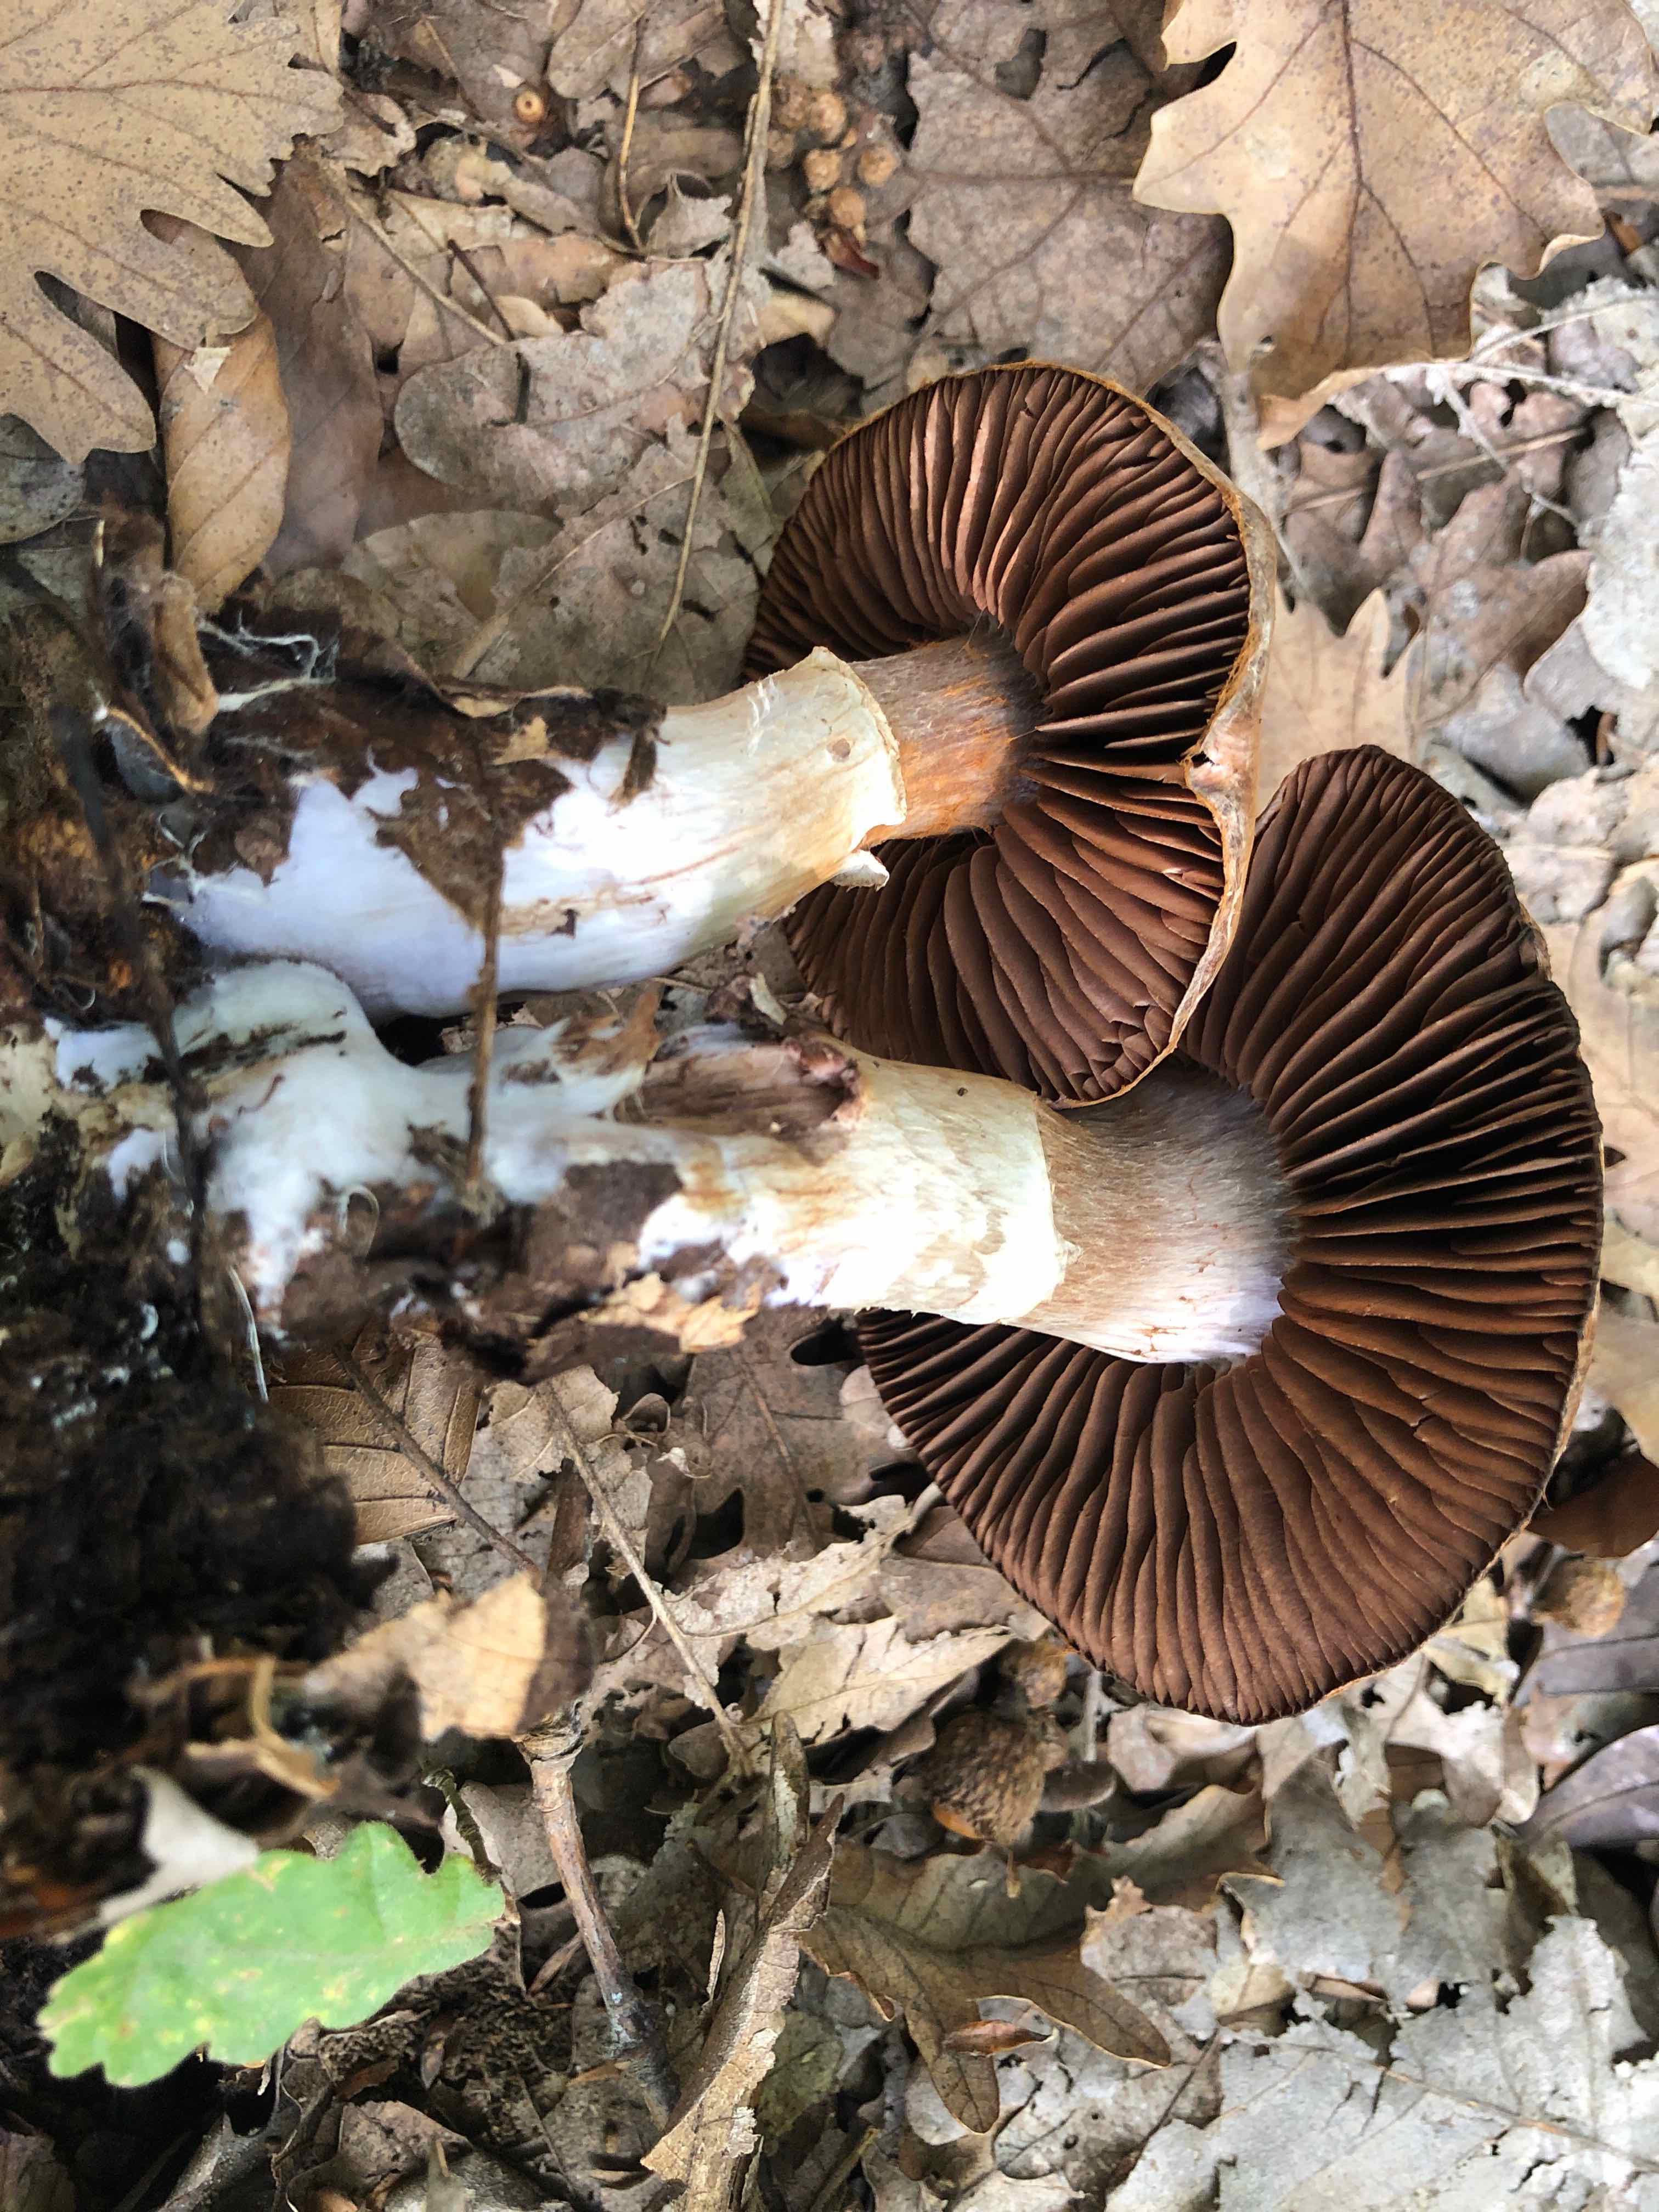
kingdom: Fungi
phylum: Basidiomycota
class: Agaricomycetes
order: Agaricales
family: Cortinariaceae
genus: Cortinarius
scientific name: Cortinarius torvus
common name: champignonagtig slørhat
